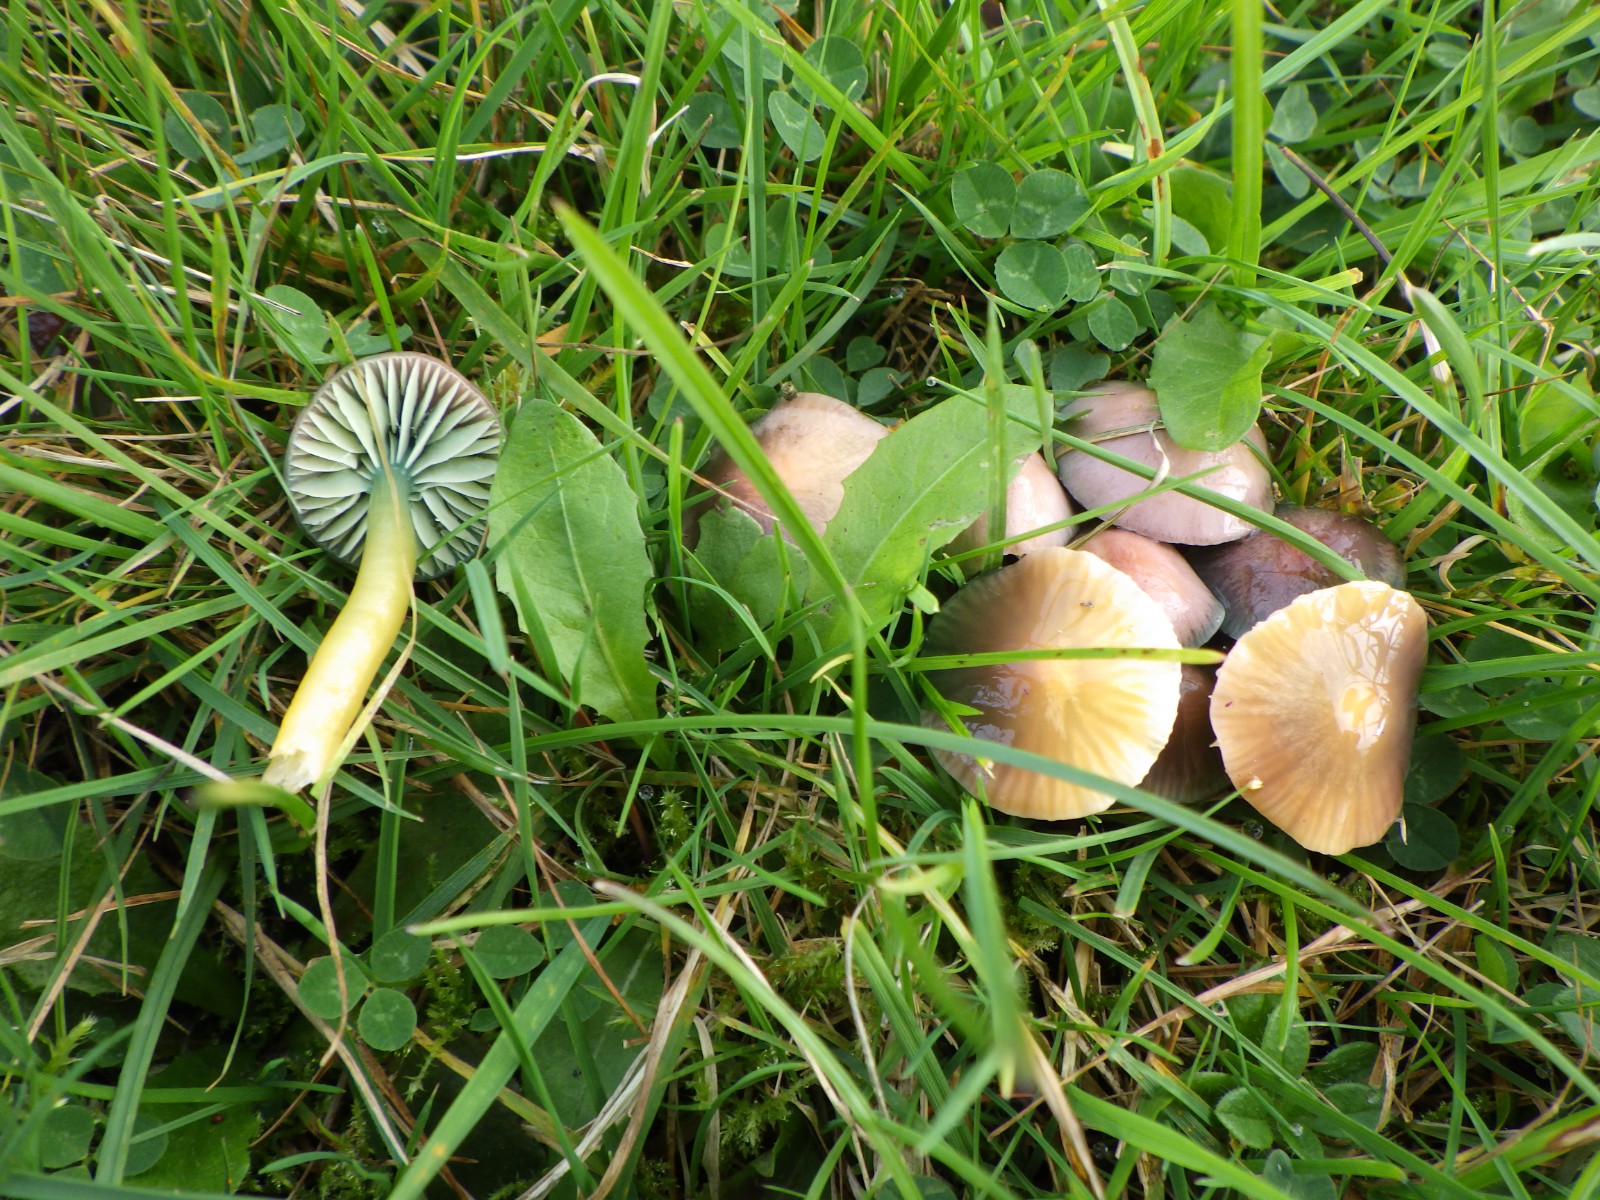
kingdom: Fungi
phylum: Basidiomycota
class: Agaricomycetes
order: Agaricales
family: Hygrophoraceae
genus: Gliophorus
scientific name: Gliophorus psittacinus
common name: papegøje-vokshat
